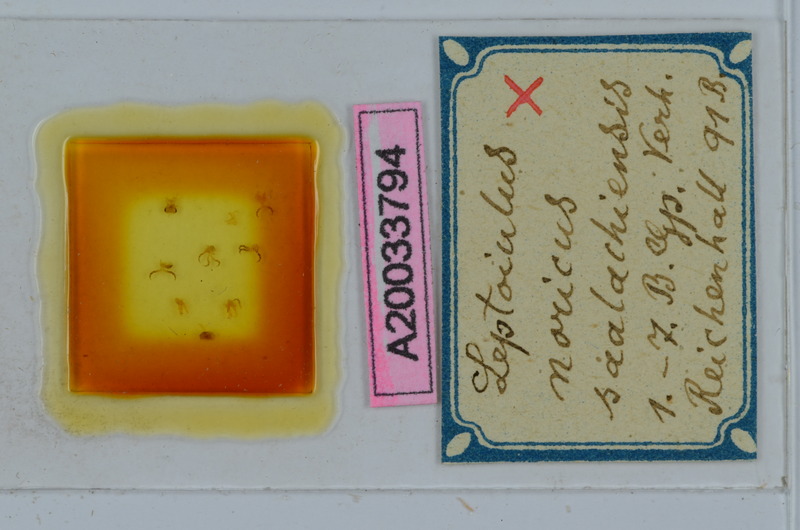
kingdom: Animalia
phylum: Arthropoda
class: Diplopoda
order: Julida
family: Julidae
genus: Leptoiulus
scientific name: Leptoiulus noricus
